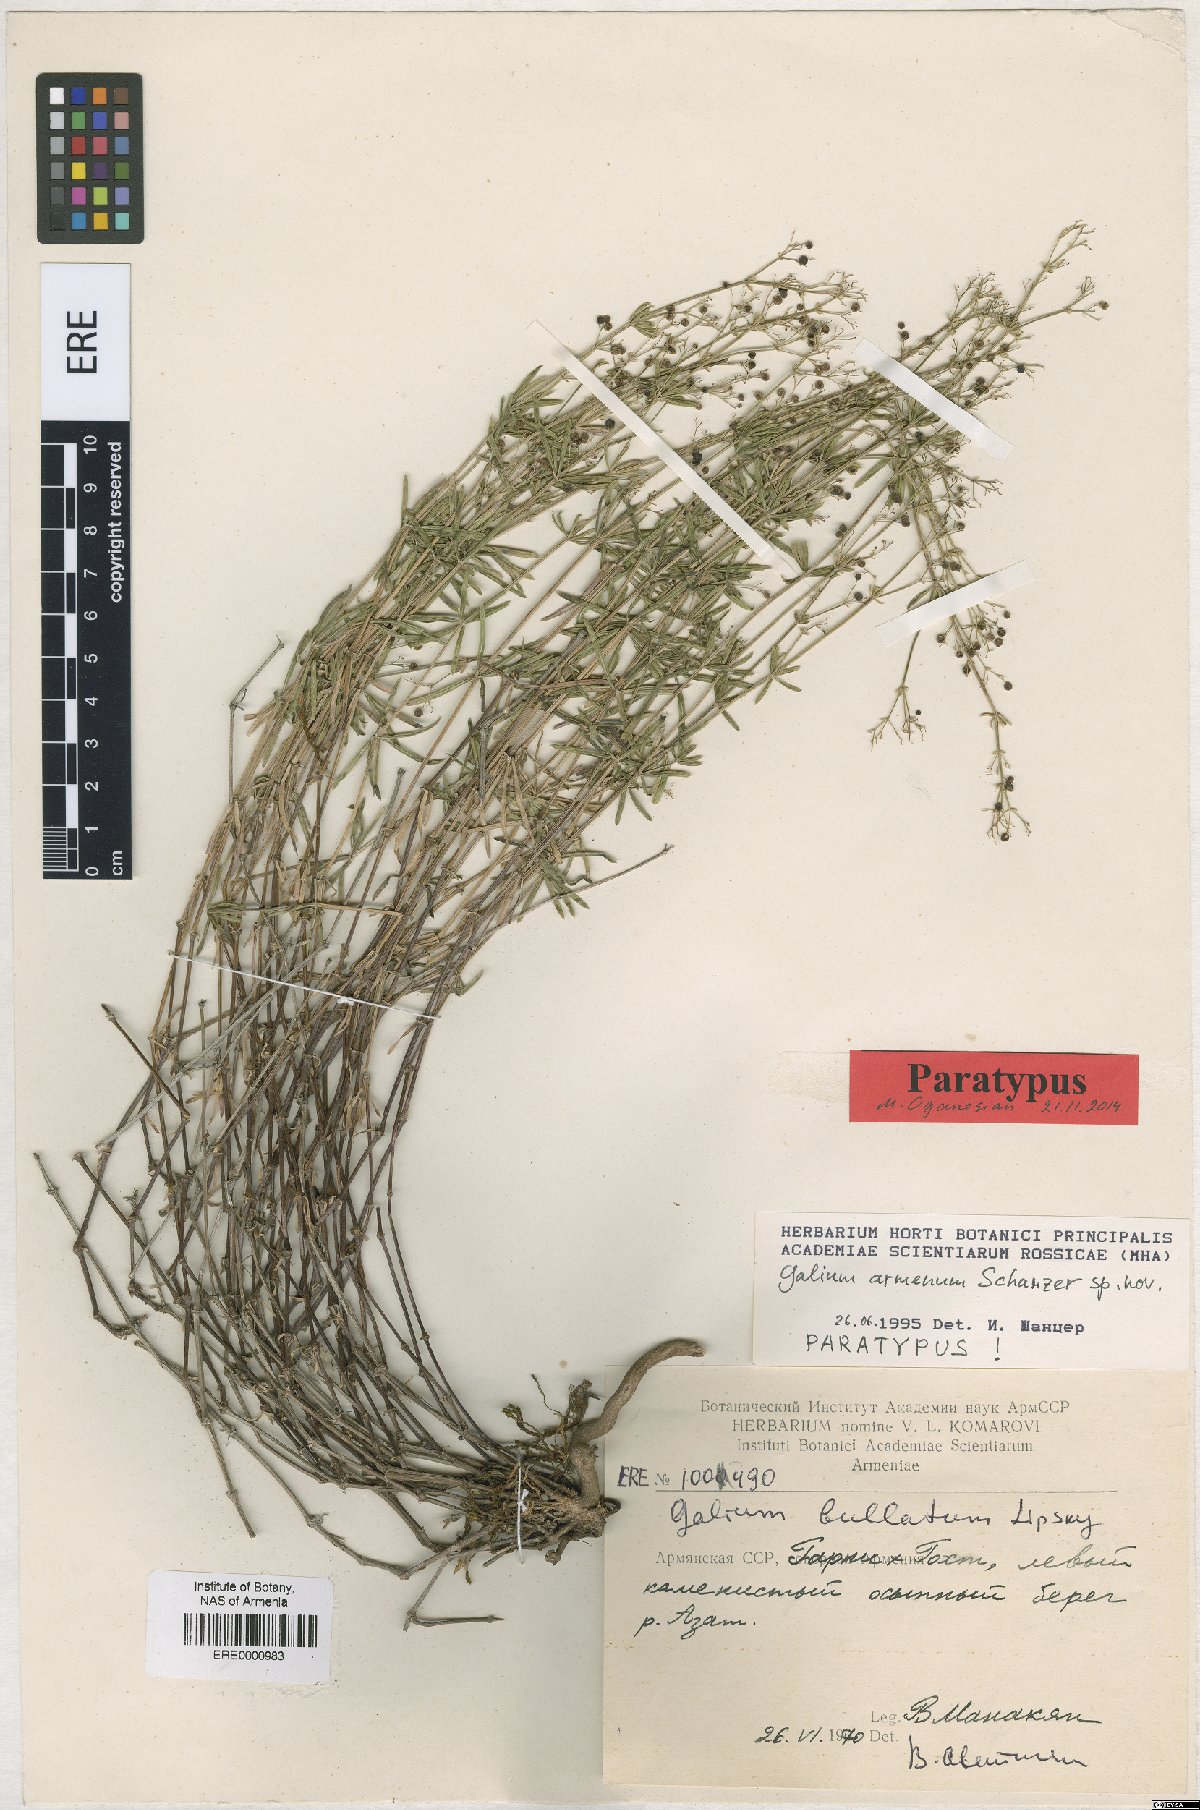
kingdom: Plantae
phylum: Tracheophyta
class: Magnoliopsida
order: Gentianales
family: Rubiaceae
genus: Galium
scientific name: Galium armenum
